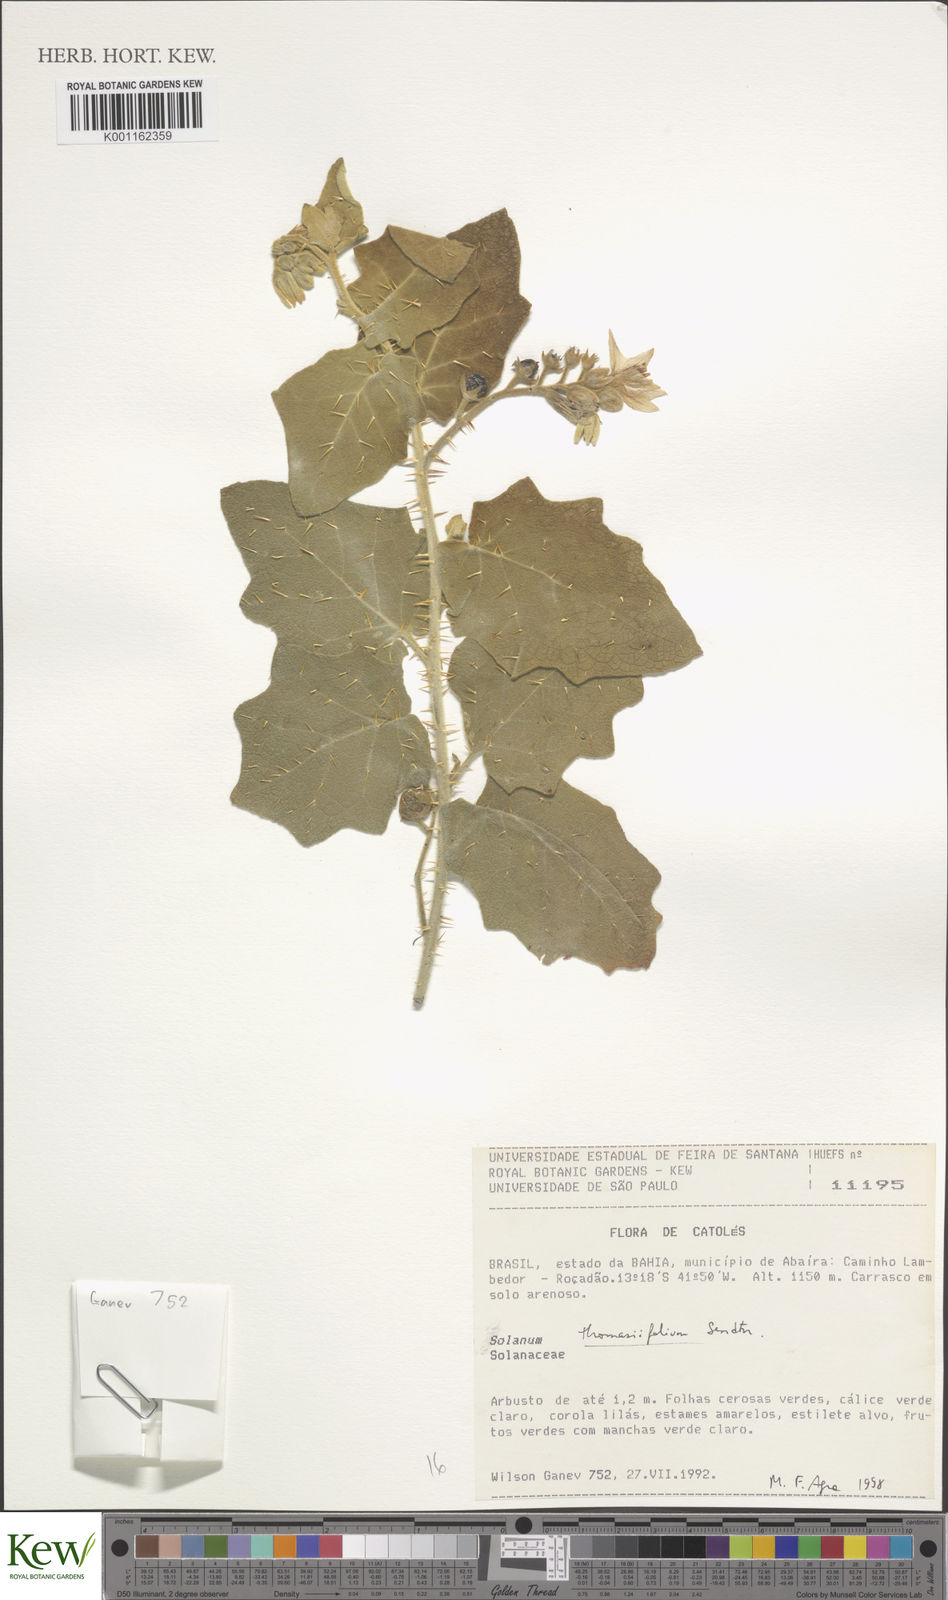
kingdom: Plantae
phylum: Tracheophyta
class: Magnoliopsida
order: Solanales
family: Solanaceae
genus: Solanum
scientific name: Solanum thomasiifolium
